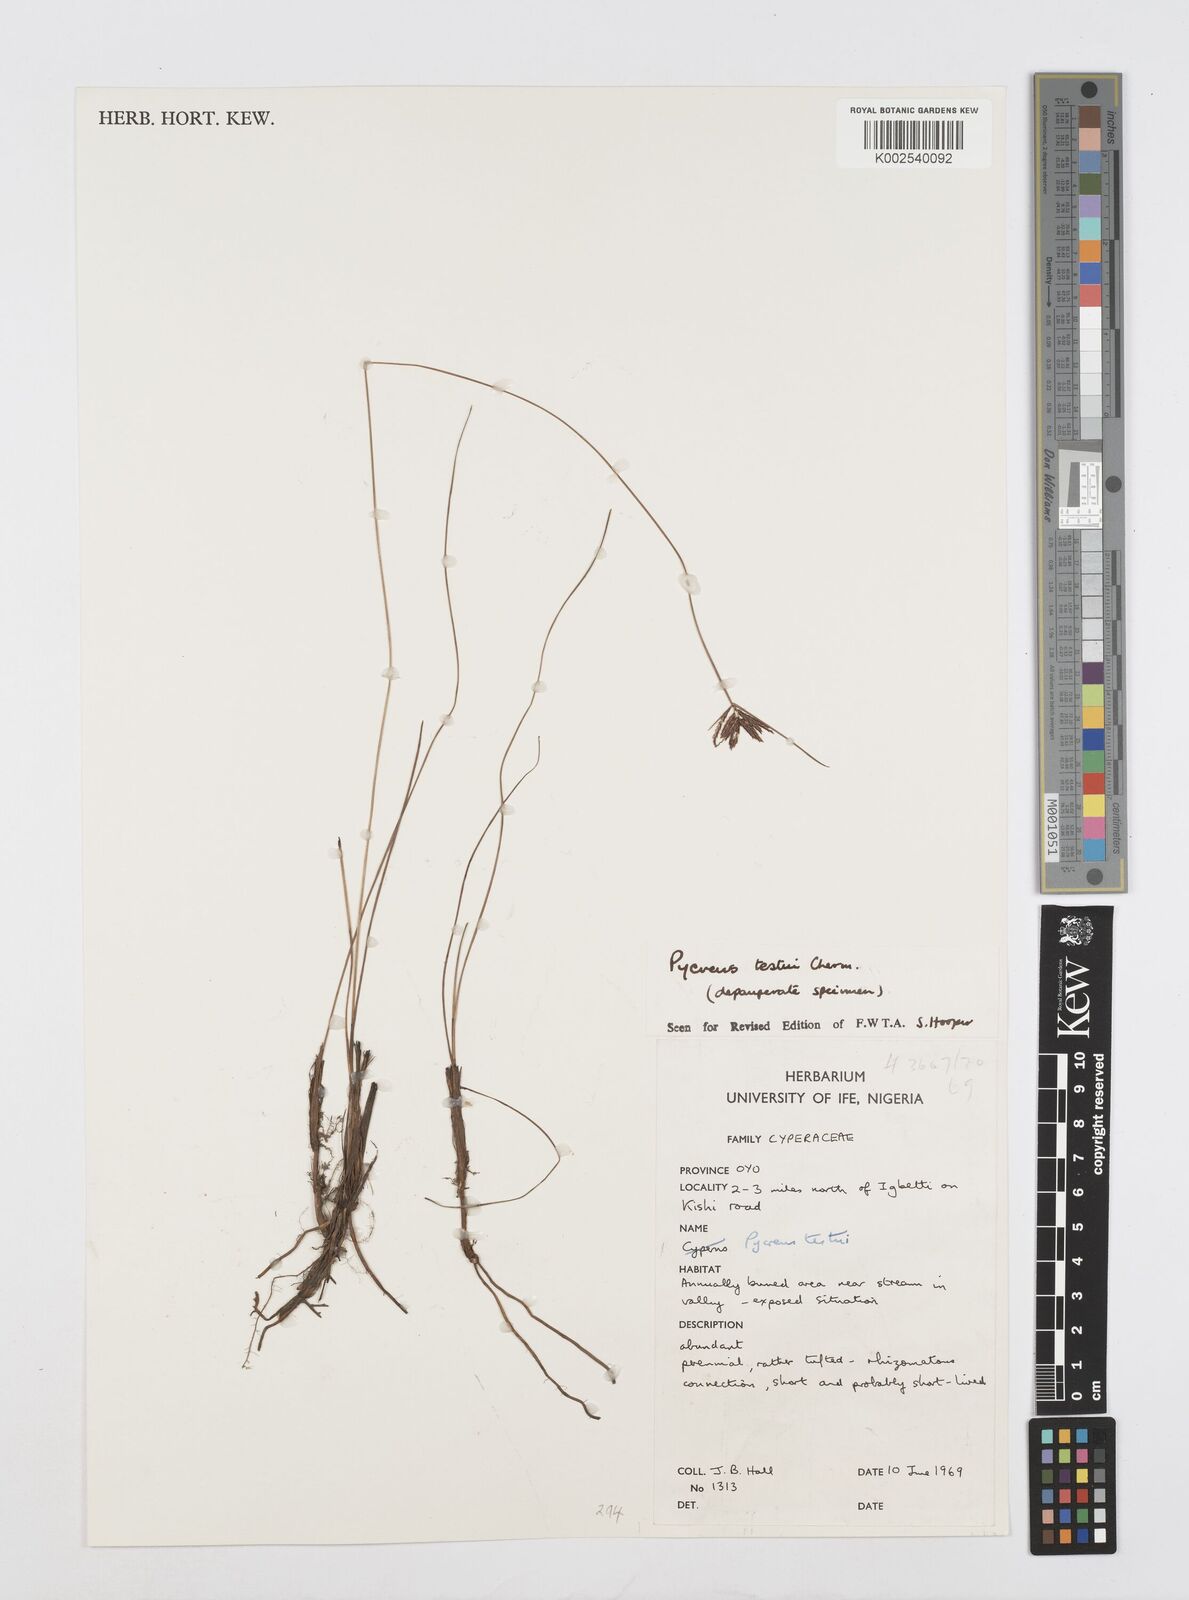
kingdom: Plantae
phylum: Tracheophyta
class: Liliopsida
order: Poales
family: Cyperaceae
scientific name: Cyperaceae
